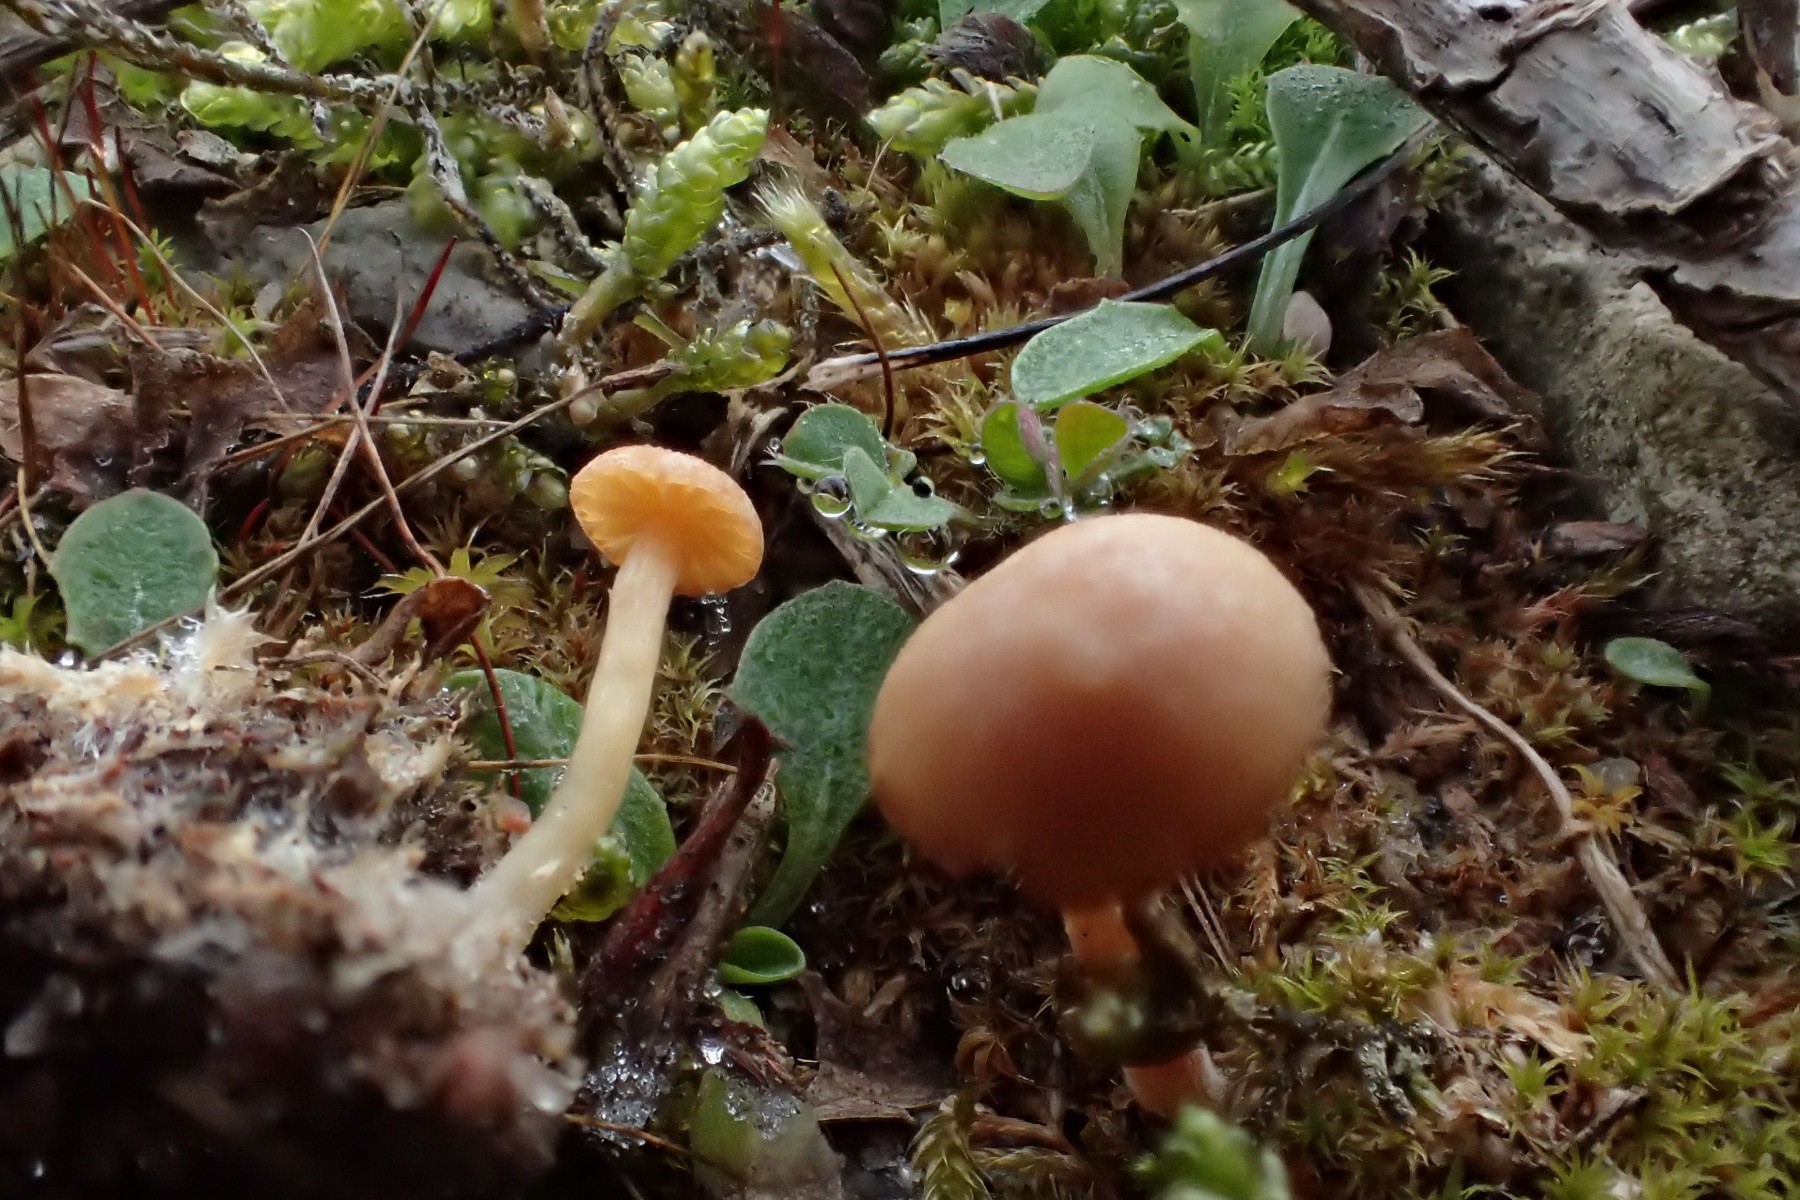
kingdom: Fungi
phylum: Basidiomycota
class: Agaricomycetes
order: Agaricales
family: Strophariaceae
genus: Agrocybe
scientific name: Agrocybe
